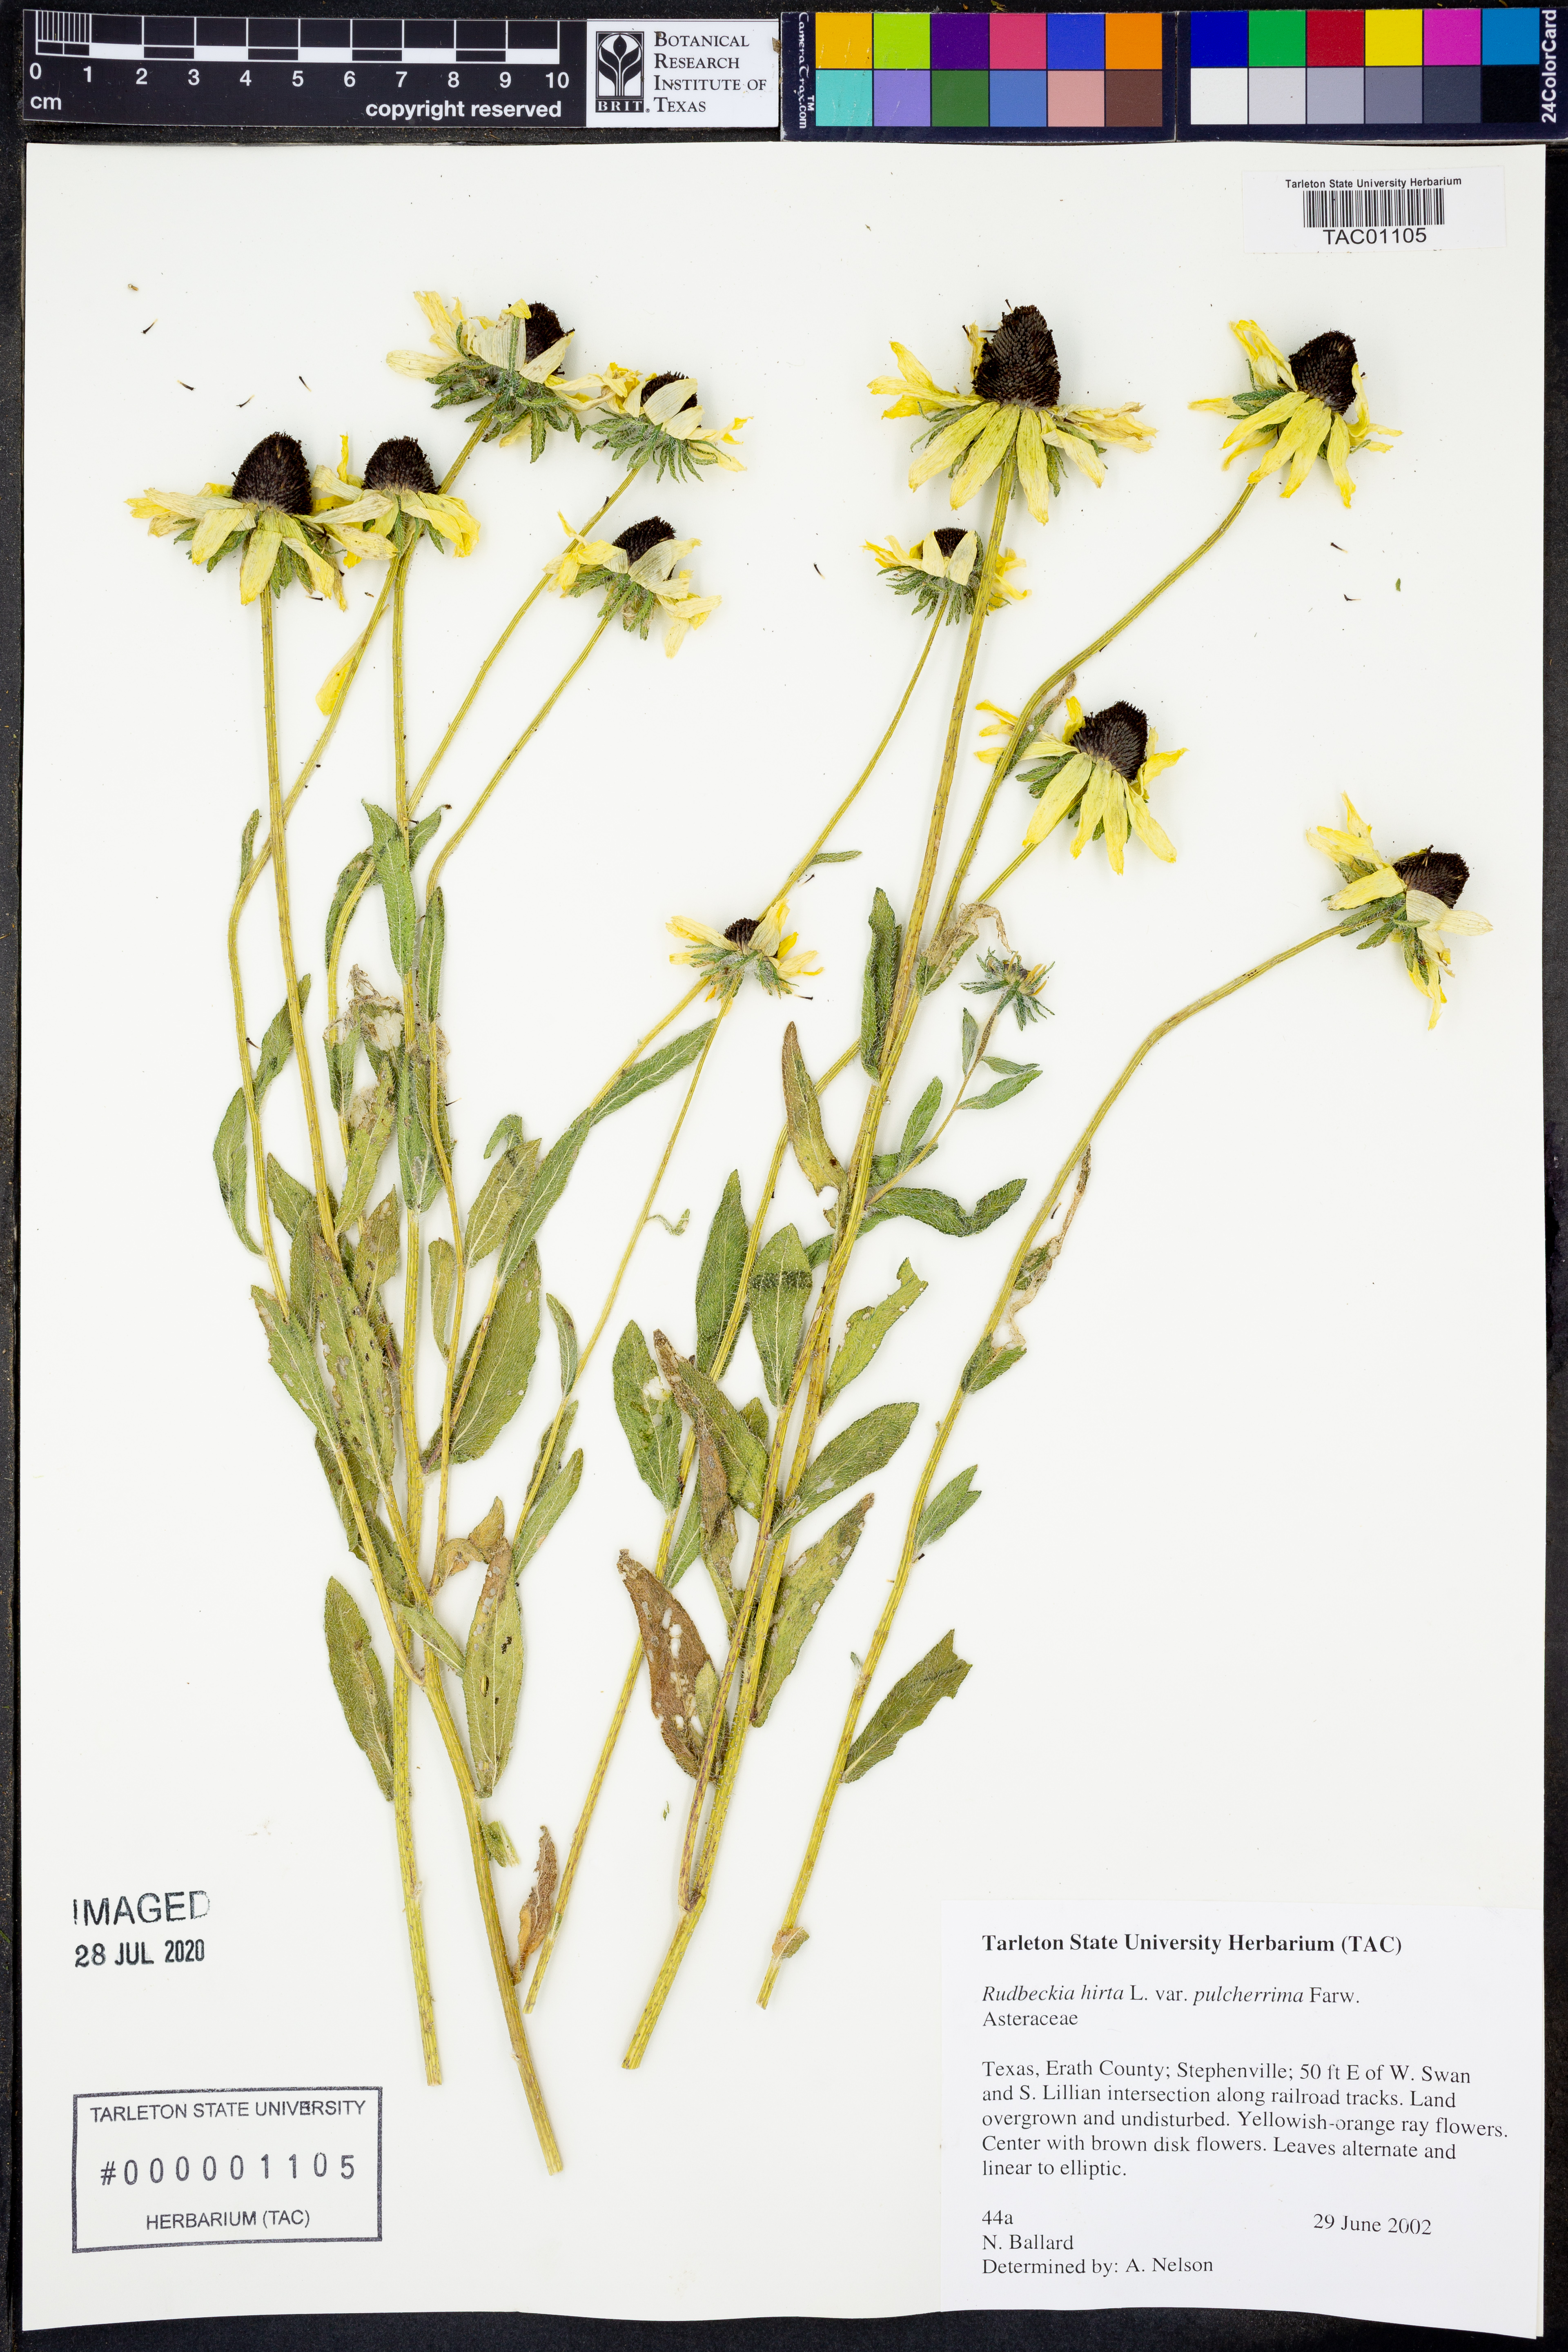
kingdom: Plantae
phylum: Tracheophyta
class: Magnoliopsida
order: Asterales
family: Asteraceae
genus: Rudbeckia
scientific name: Rudbeckia hirta
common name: Black-eyed-susan
